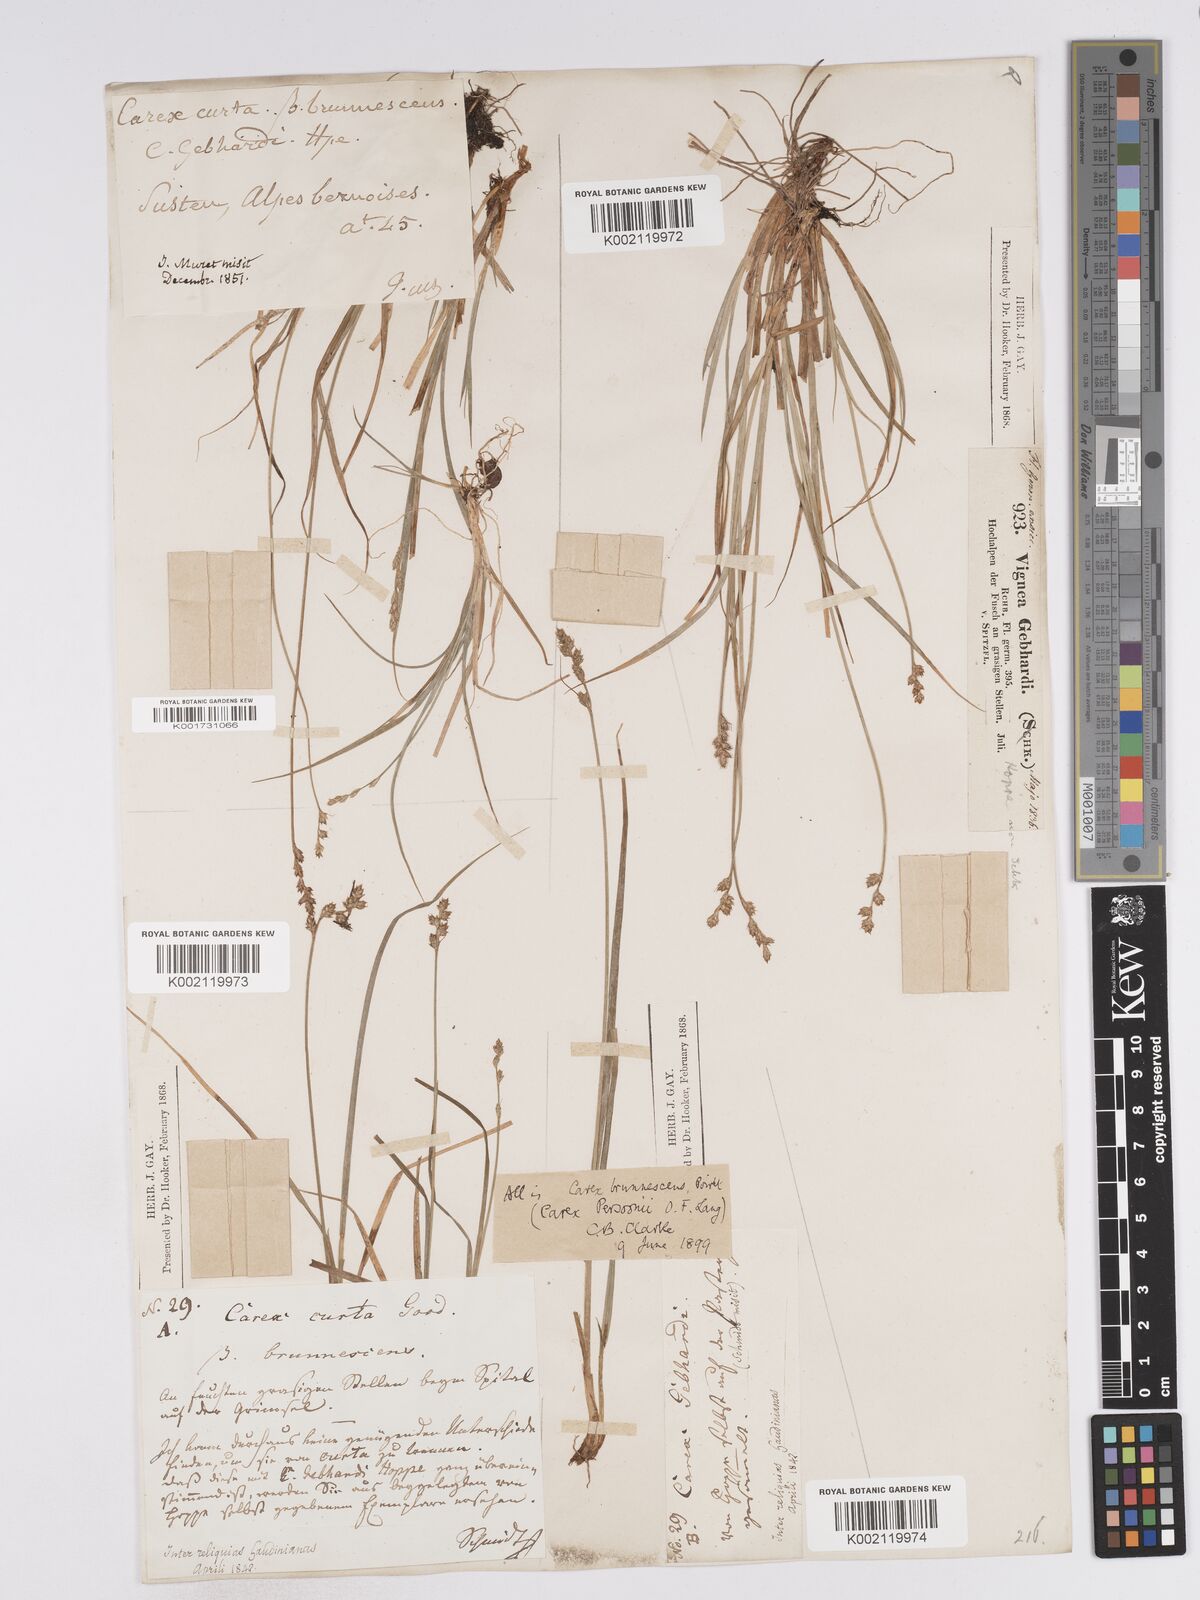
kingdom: Plantae
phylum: Tracheophyta
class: Liliopsida
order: Poales
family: Cyperaceae
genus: Carex
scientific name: Carex canescens
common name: White sedge
